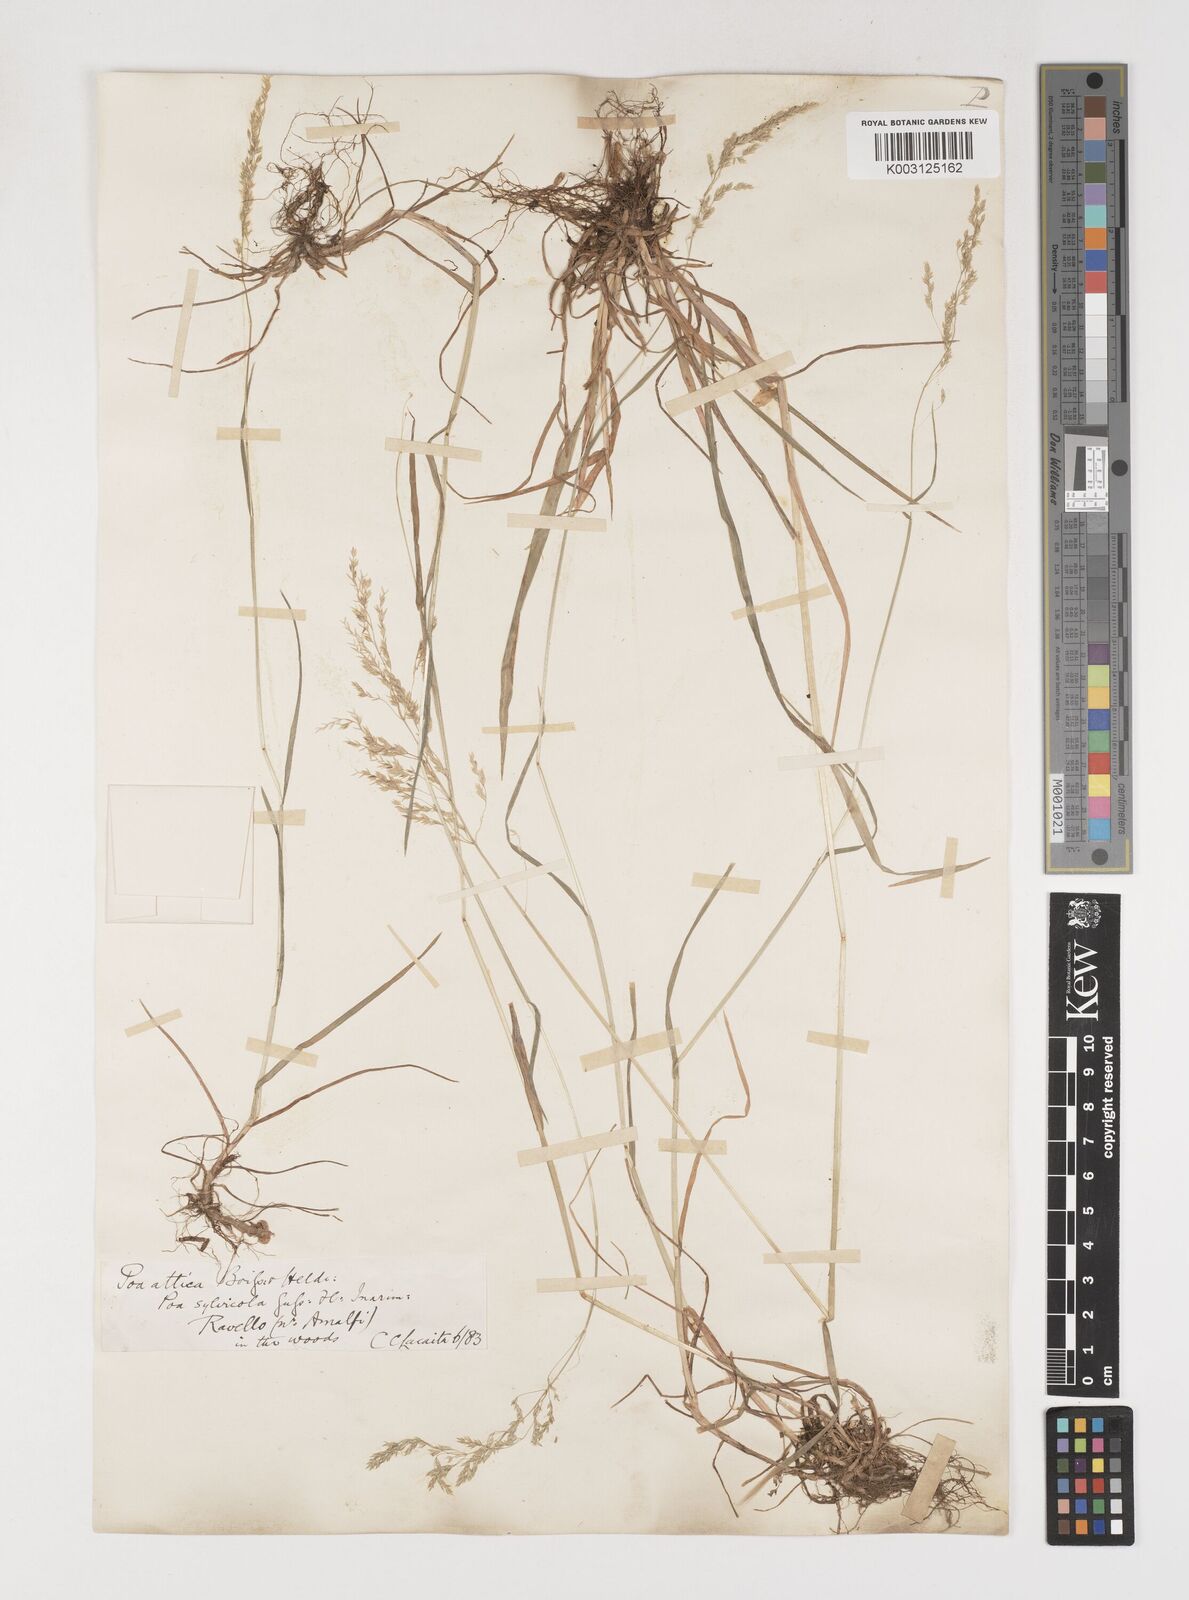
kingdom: Plantae
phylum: Tracheophyta
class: Liliopsida
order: Poales
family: Poaceae
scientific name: Poaceae
